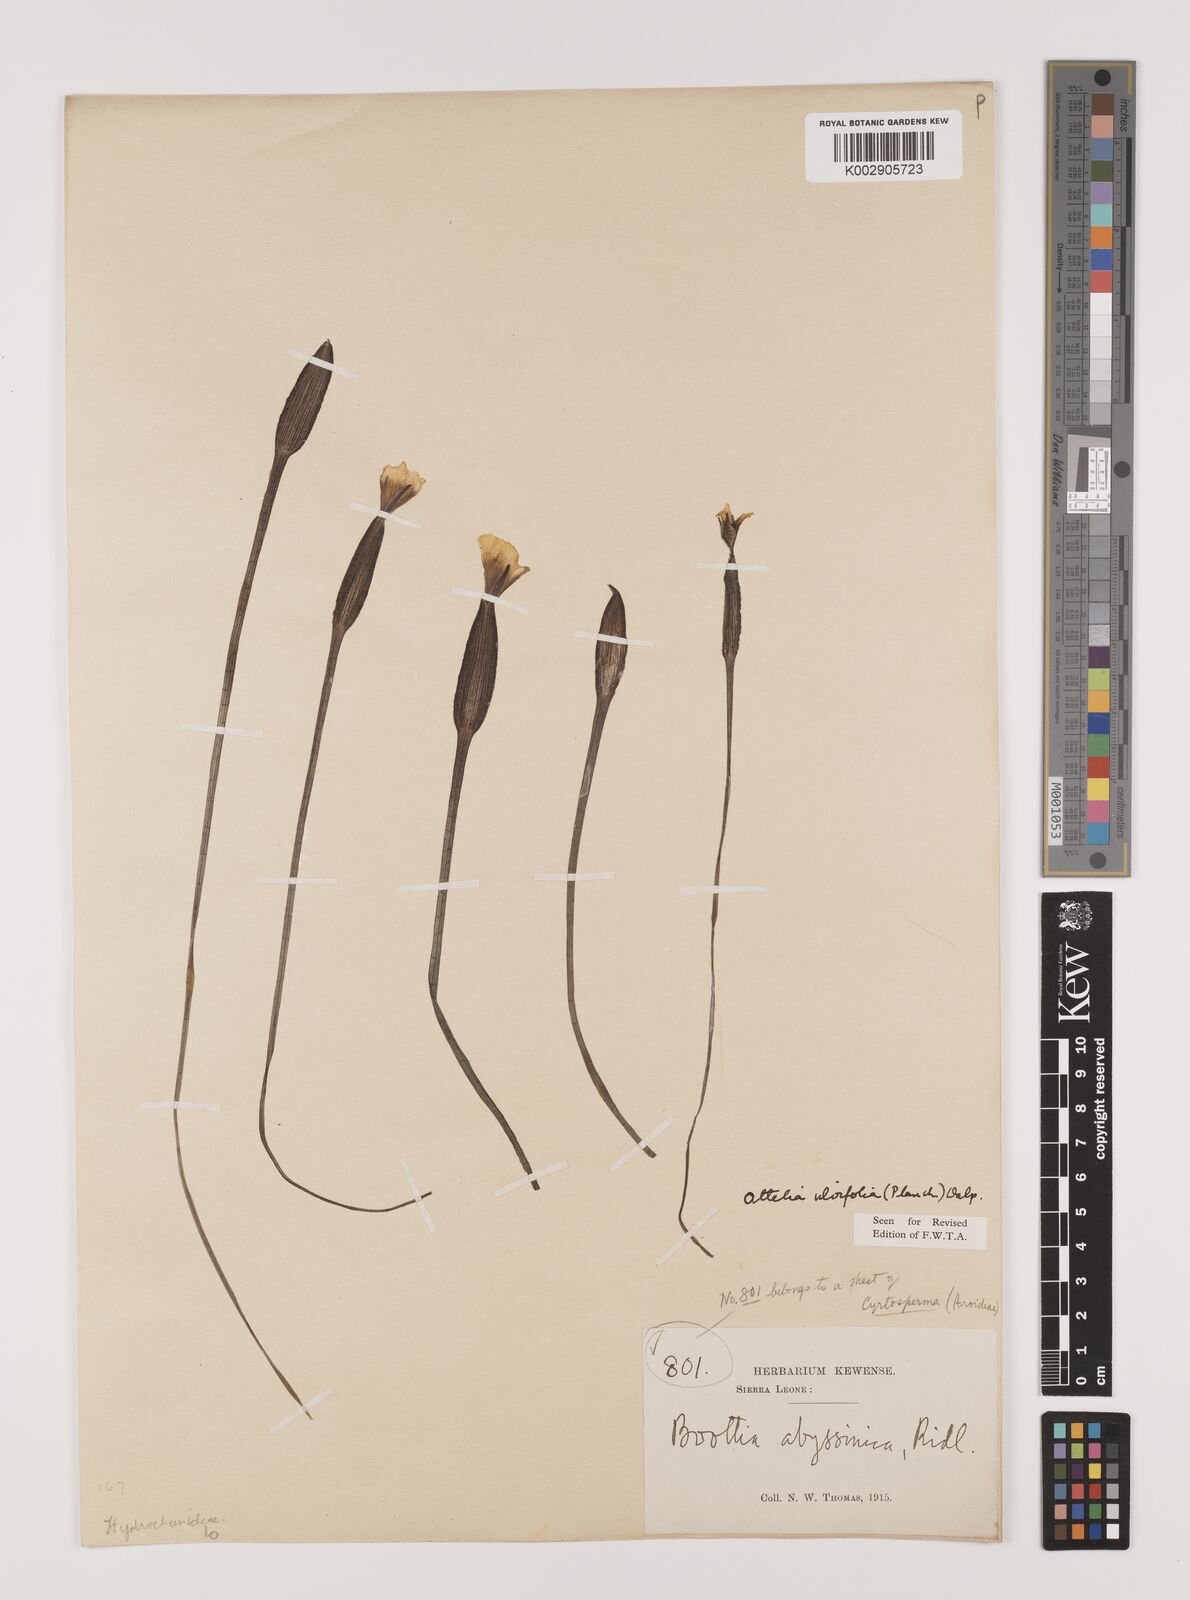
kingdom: Plantae
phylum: Tracheophyta
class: Liliopsida
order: Alismatales
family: Hydrocharitaceae
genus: Ottelia
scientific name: Ottelia ulvifolia
